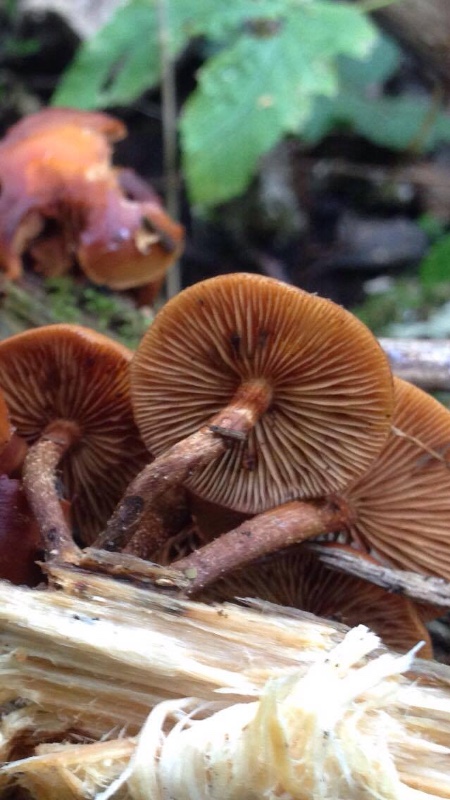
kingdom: Fungi
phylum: Basidiomycota
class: Agaricomycetes
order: Agaricales
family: Strophariaceae
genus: Kuehneromyces
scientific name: Kuehneromyces mutabilis
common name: foranderlig skælhat
